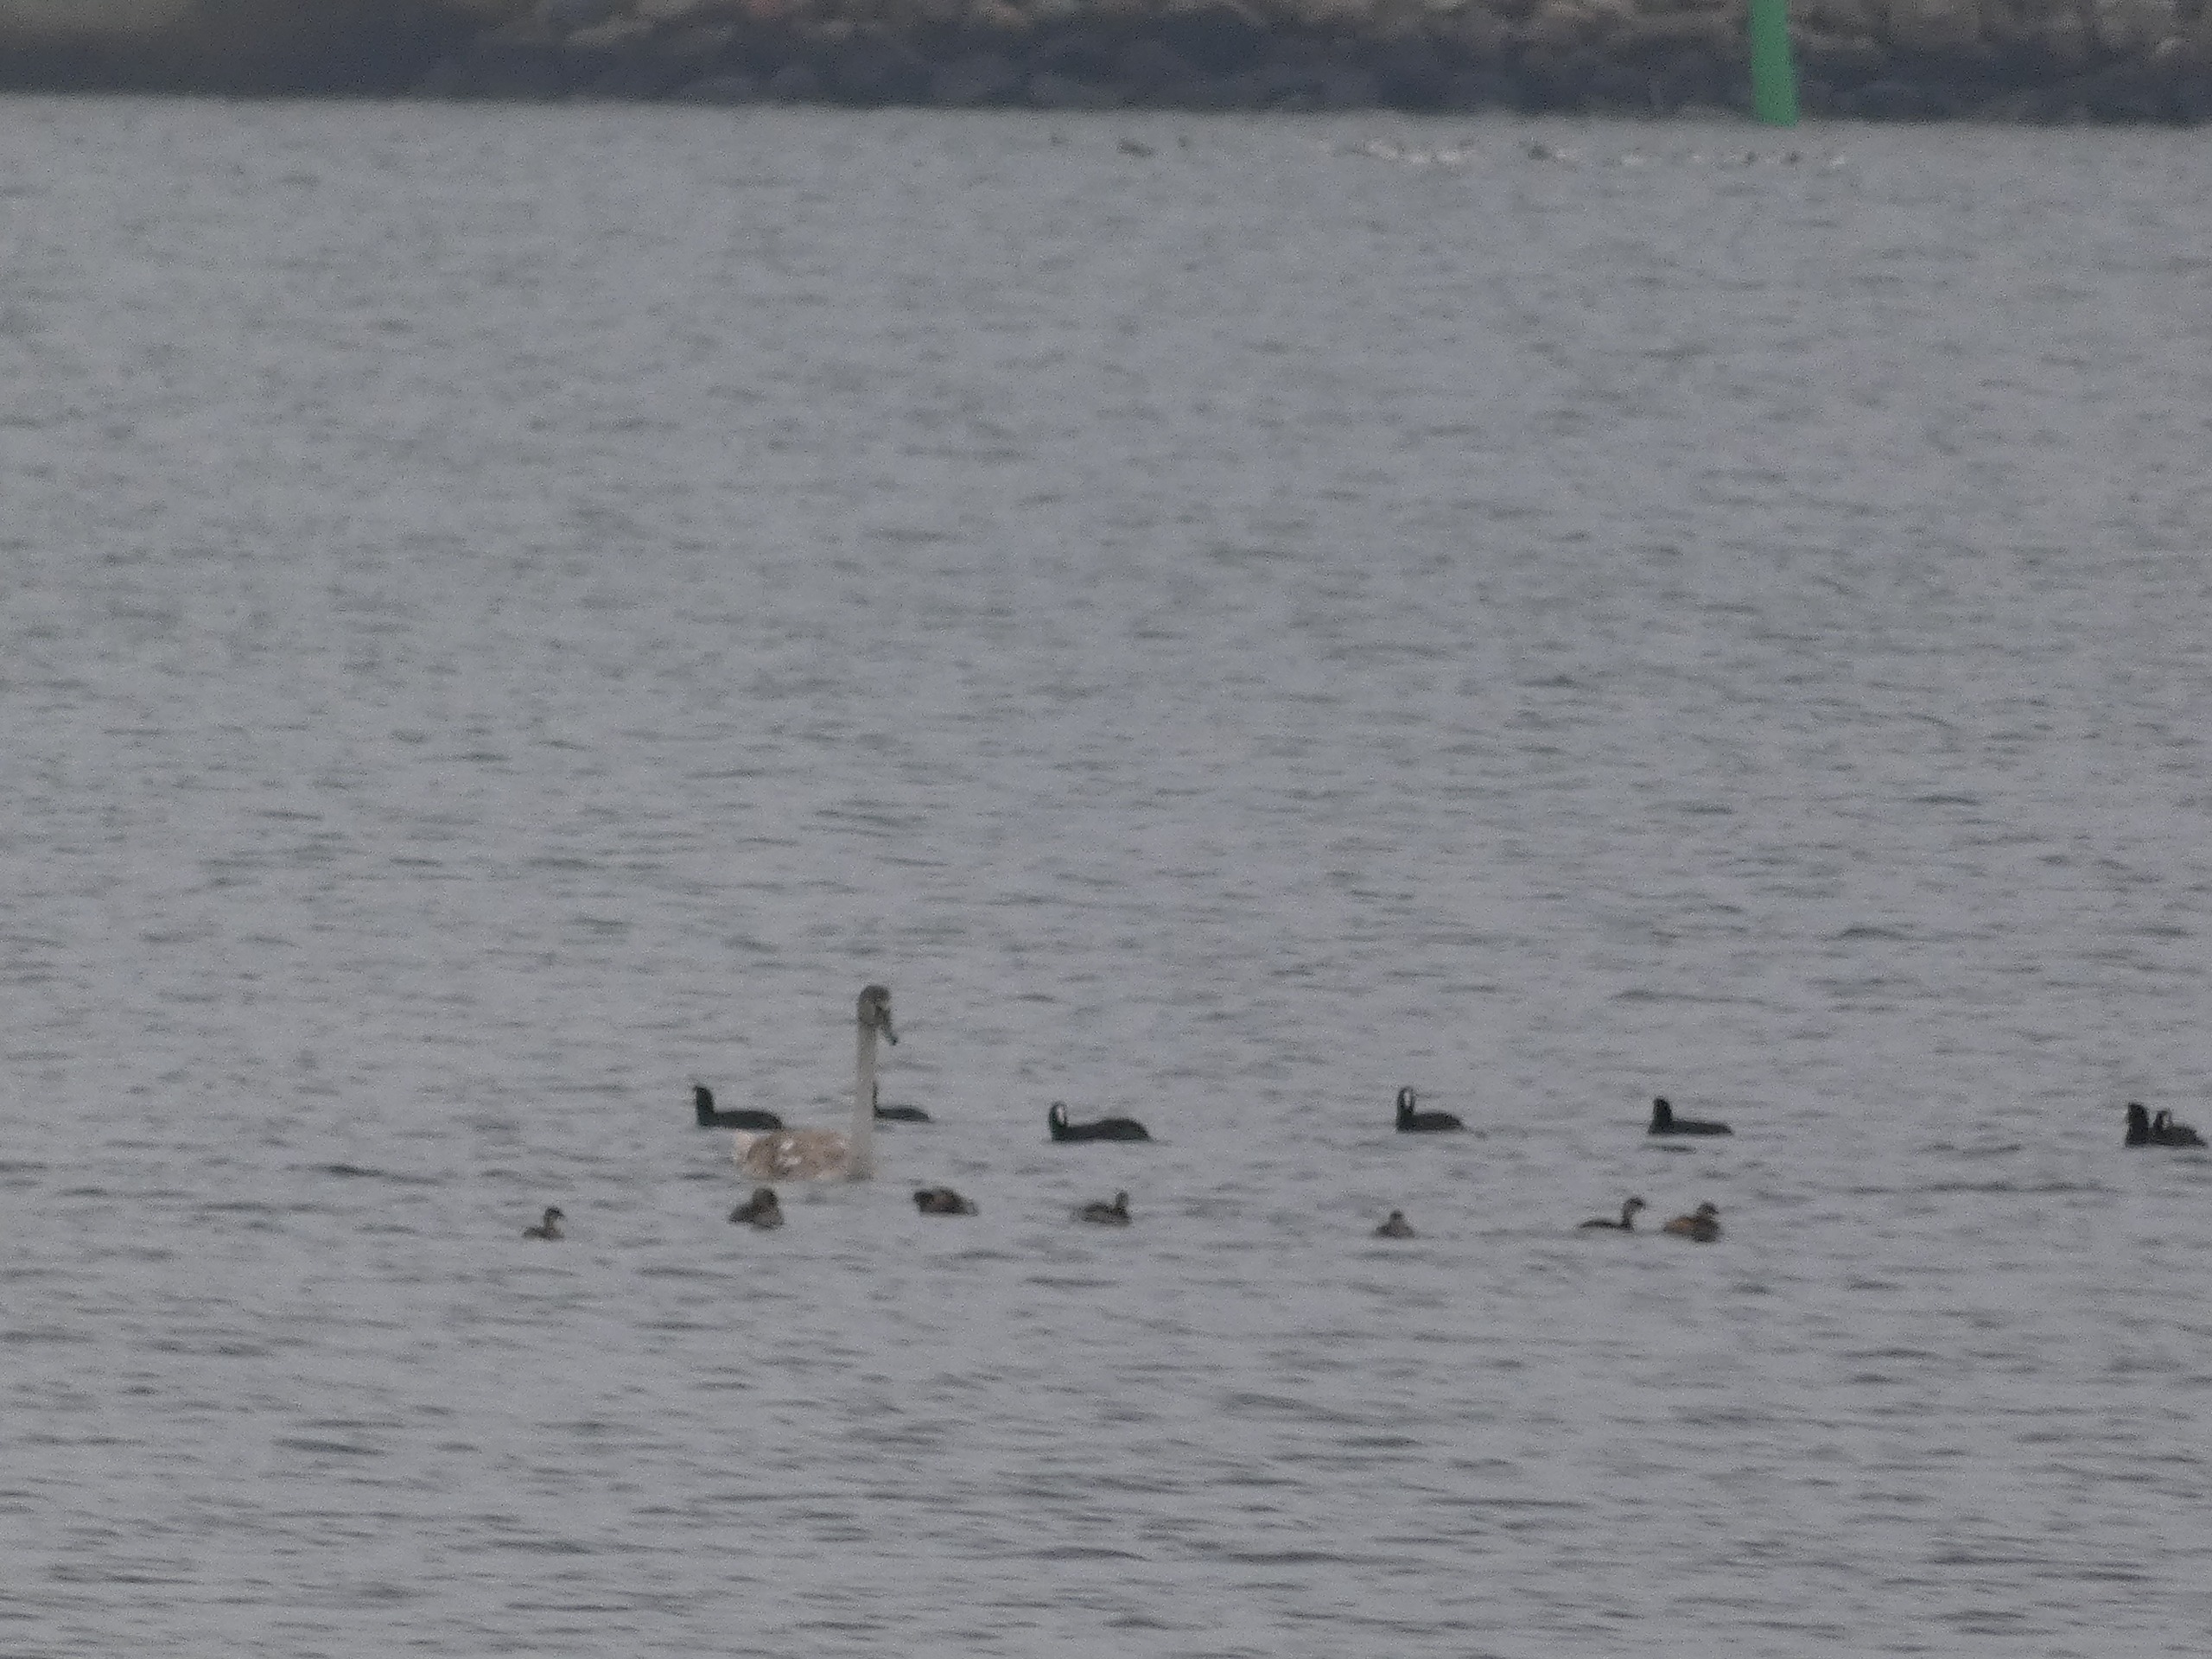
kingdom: Animalia
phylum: Chordata
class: Aves
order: Anseriformes
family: Anatidae
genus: Cygnus
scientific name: Cygnus olor
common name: Knopsvane
